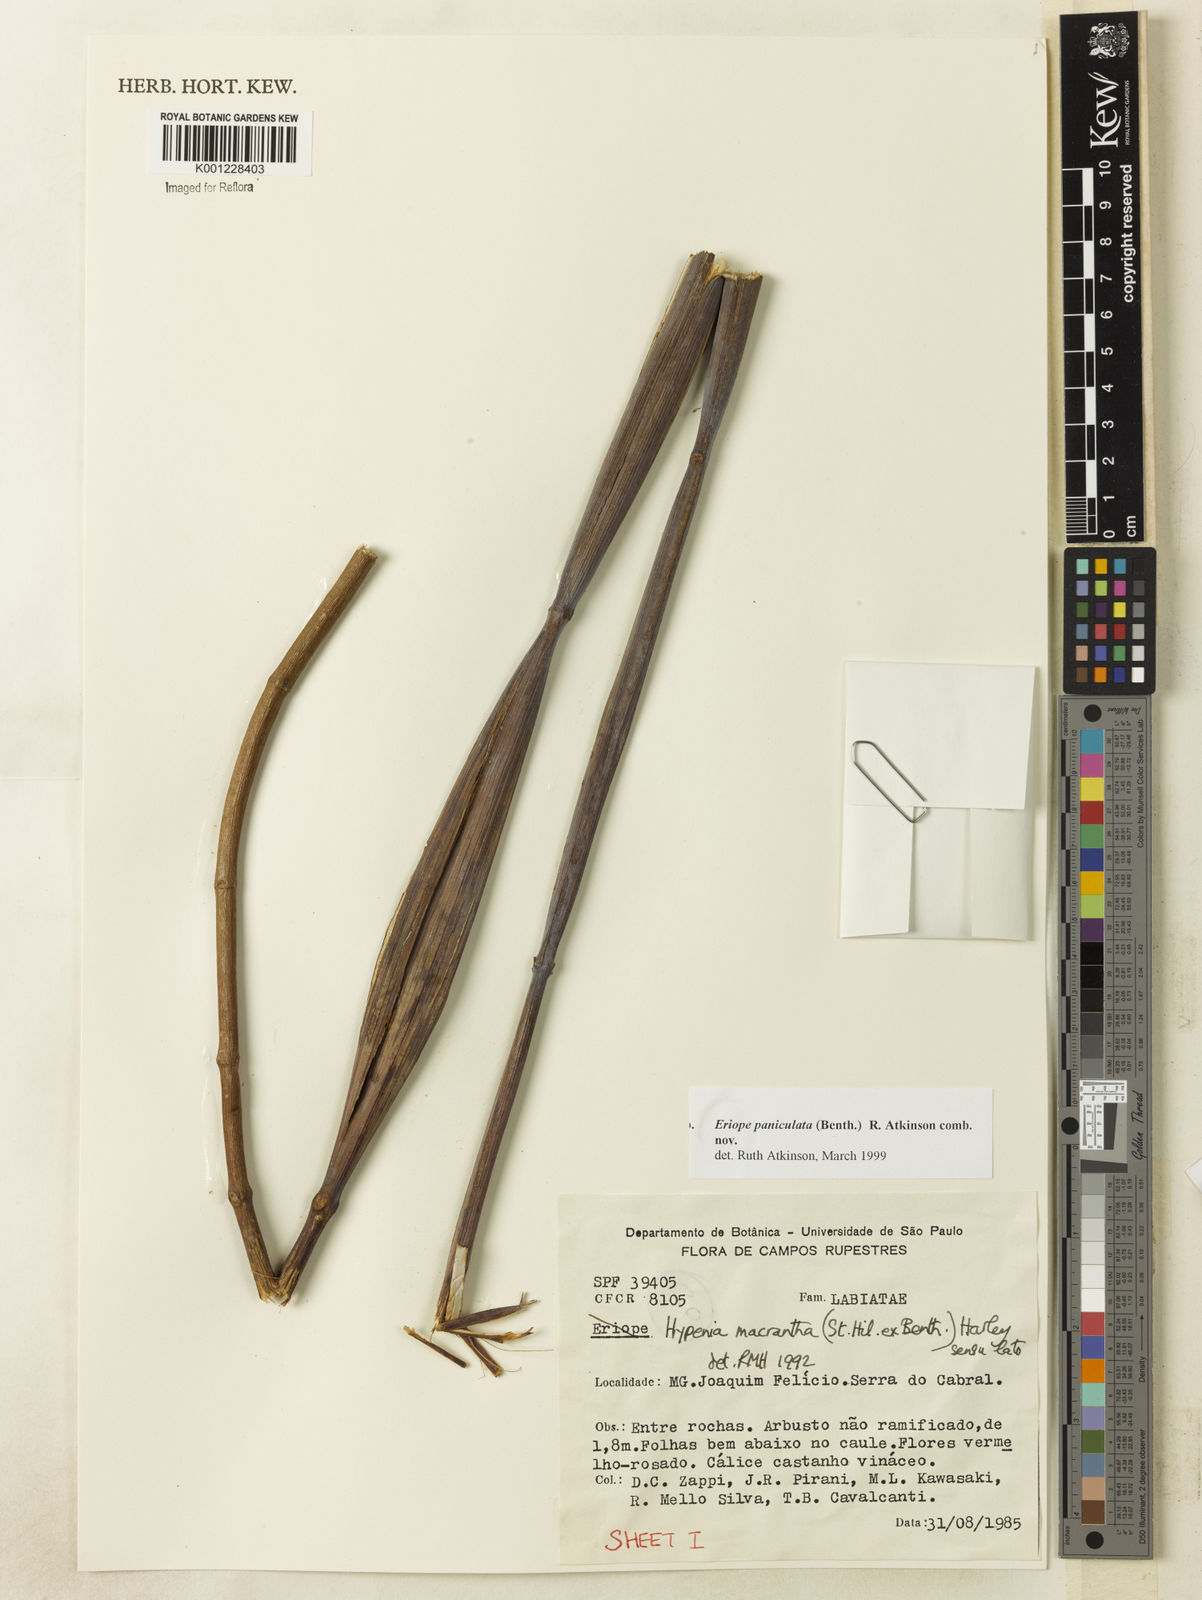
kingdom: Plantae
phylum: Tracheophyta
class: Magnoliopsida
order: Lamiales
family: Lamiaceae
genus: Hypenia
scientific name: Hypenia paniculata
